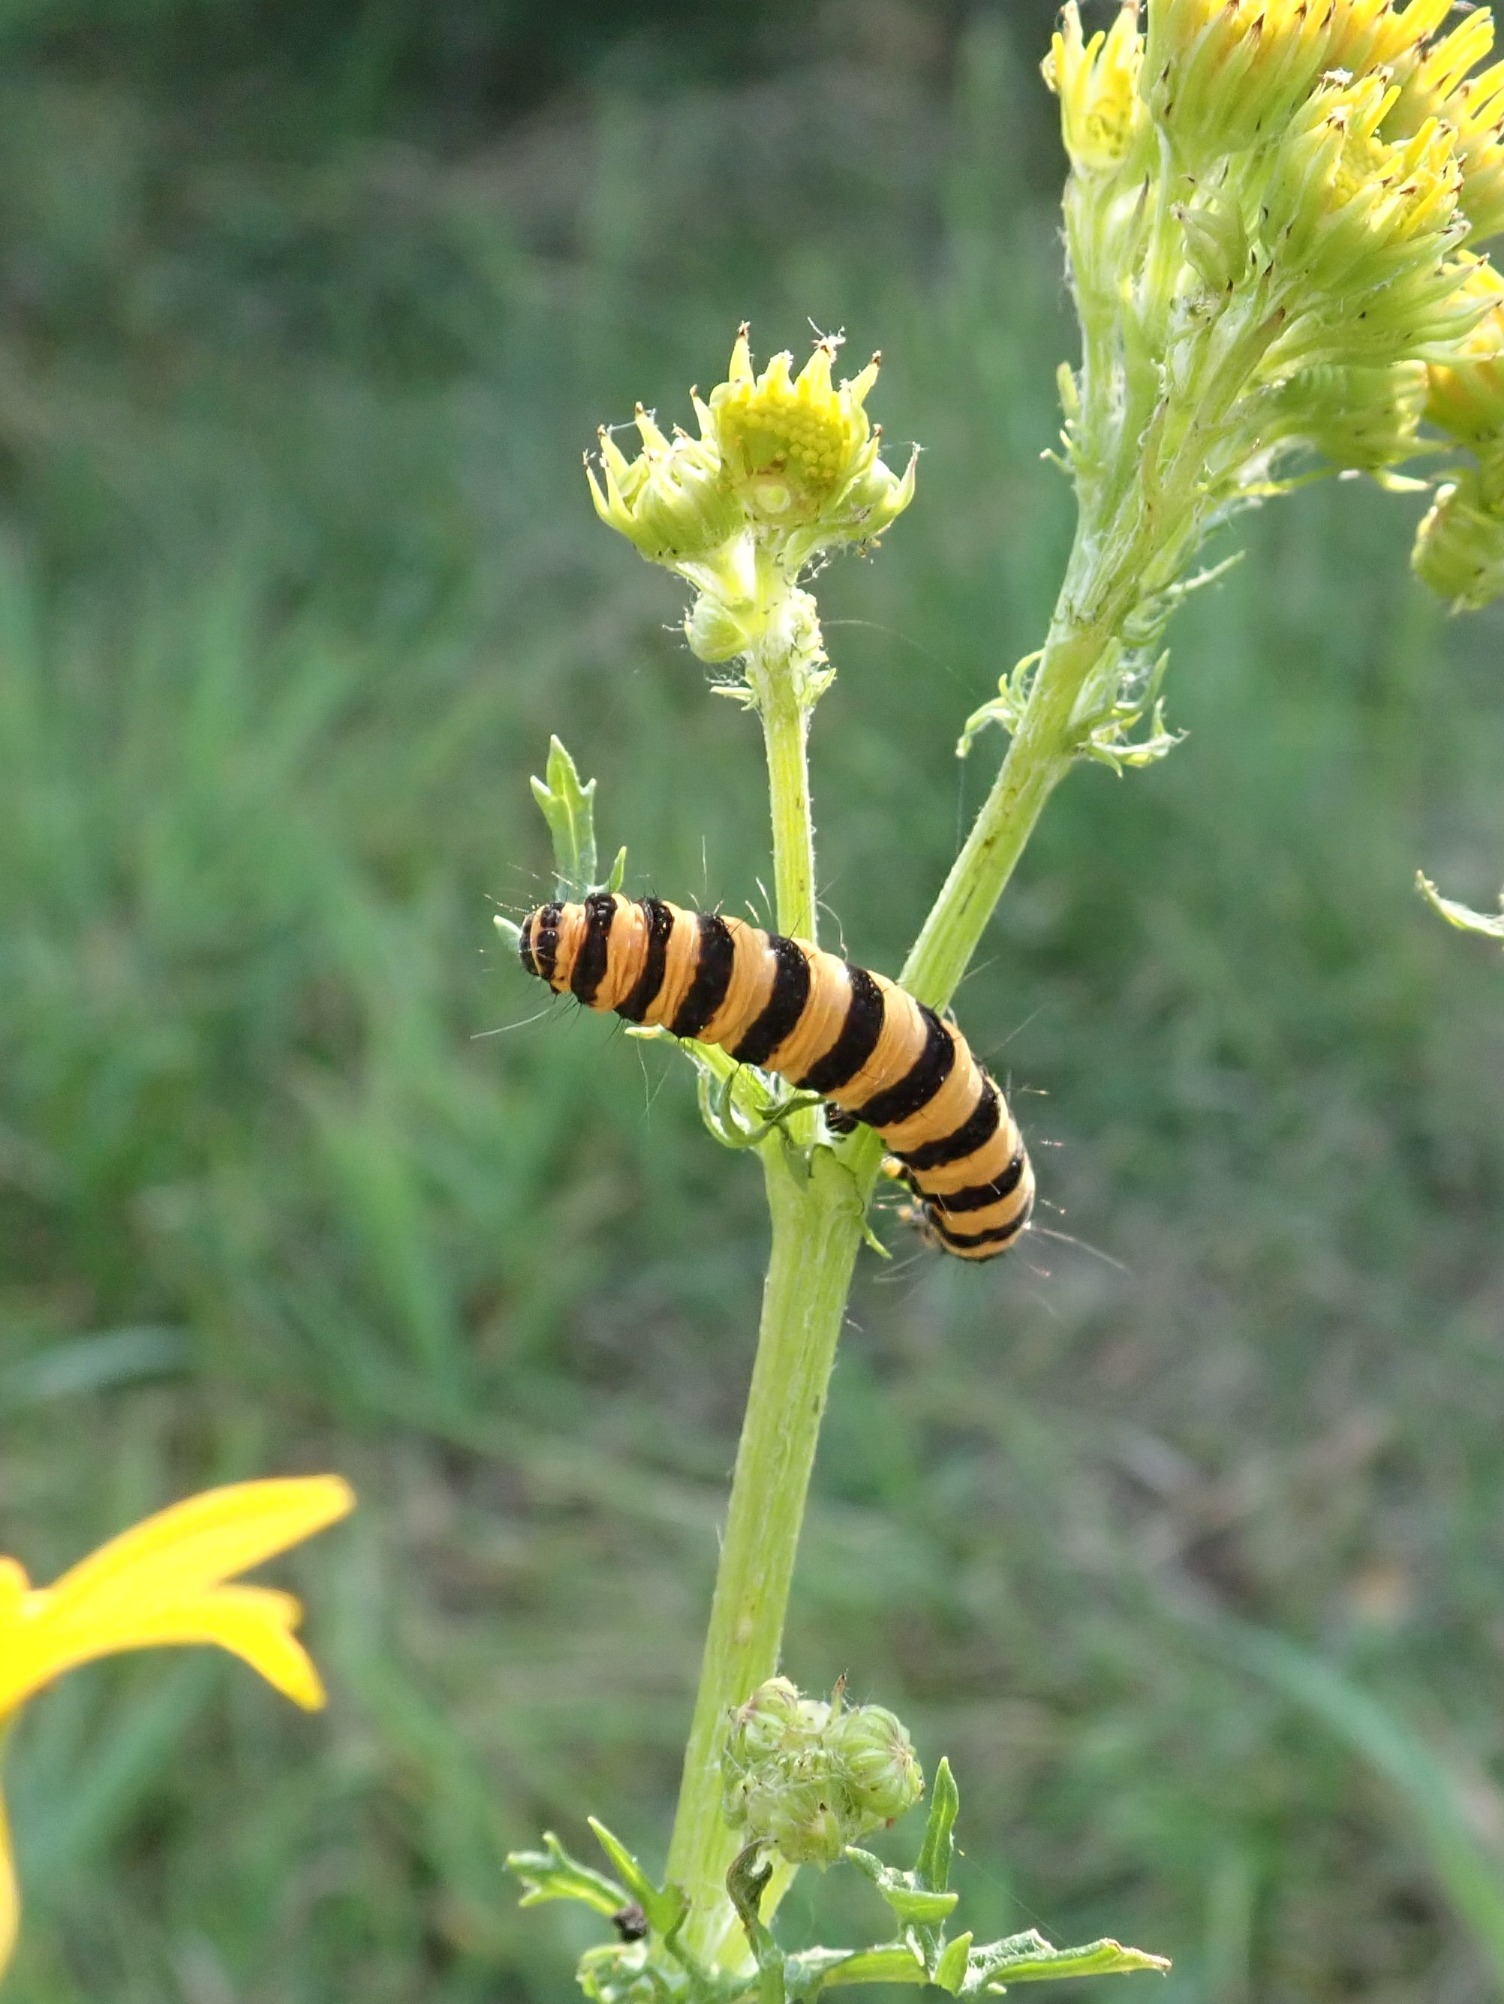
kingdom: Animalia
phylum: Arthropoda
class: Insecta
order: Lepidoptera
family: Erebidae
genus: Tyria
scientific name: Tyria jacobaeae
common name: Blodplet
